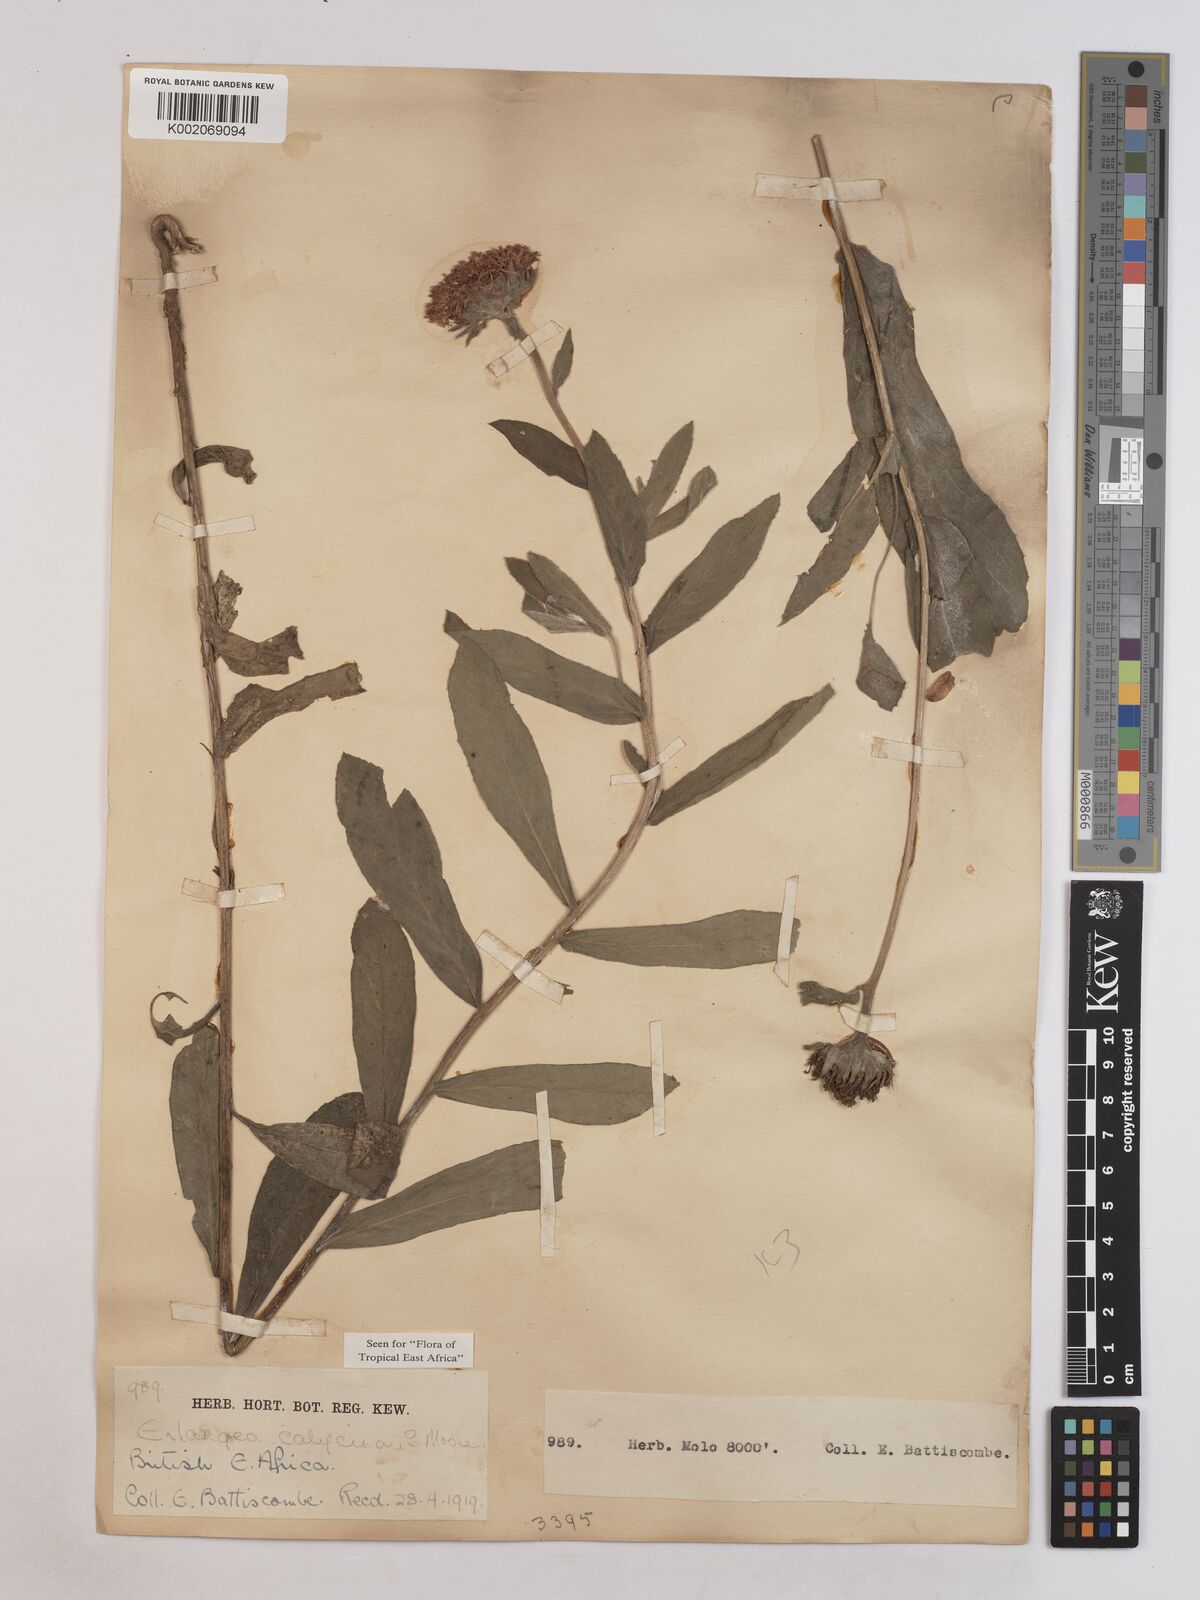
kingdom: Plantae
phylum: Tracheophyta
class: Magnoliopsida
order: Asterales
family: Asteraceae
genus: Erlangea
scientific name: Erlangea calycina
